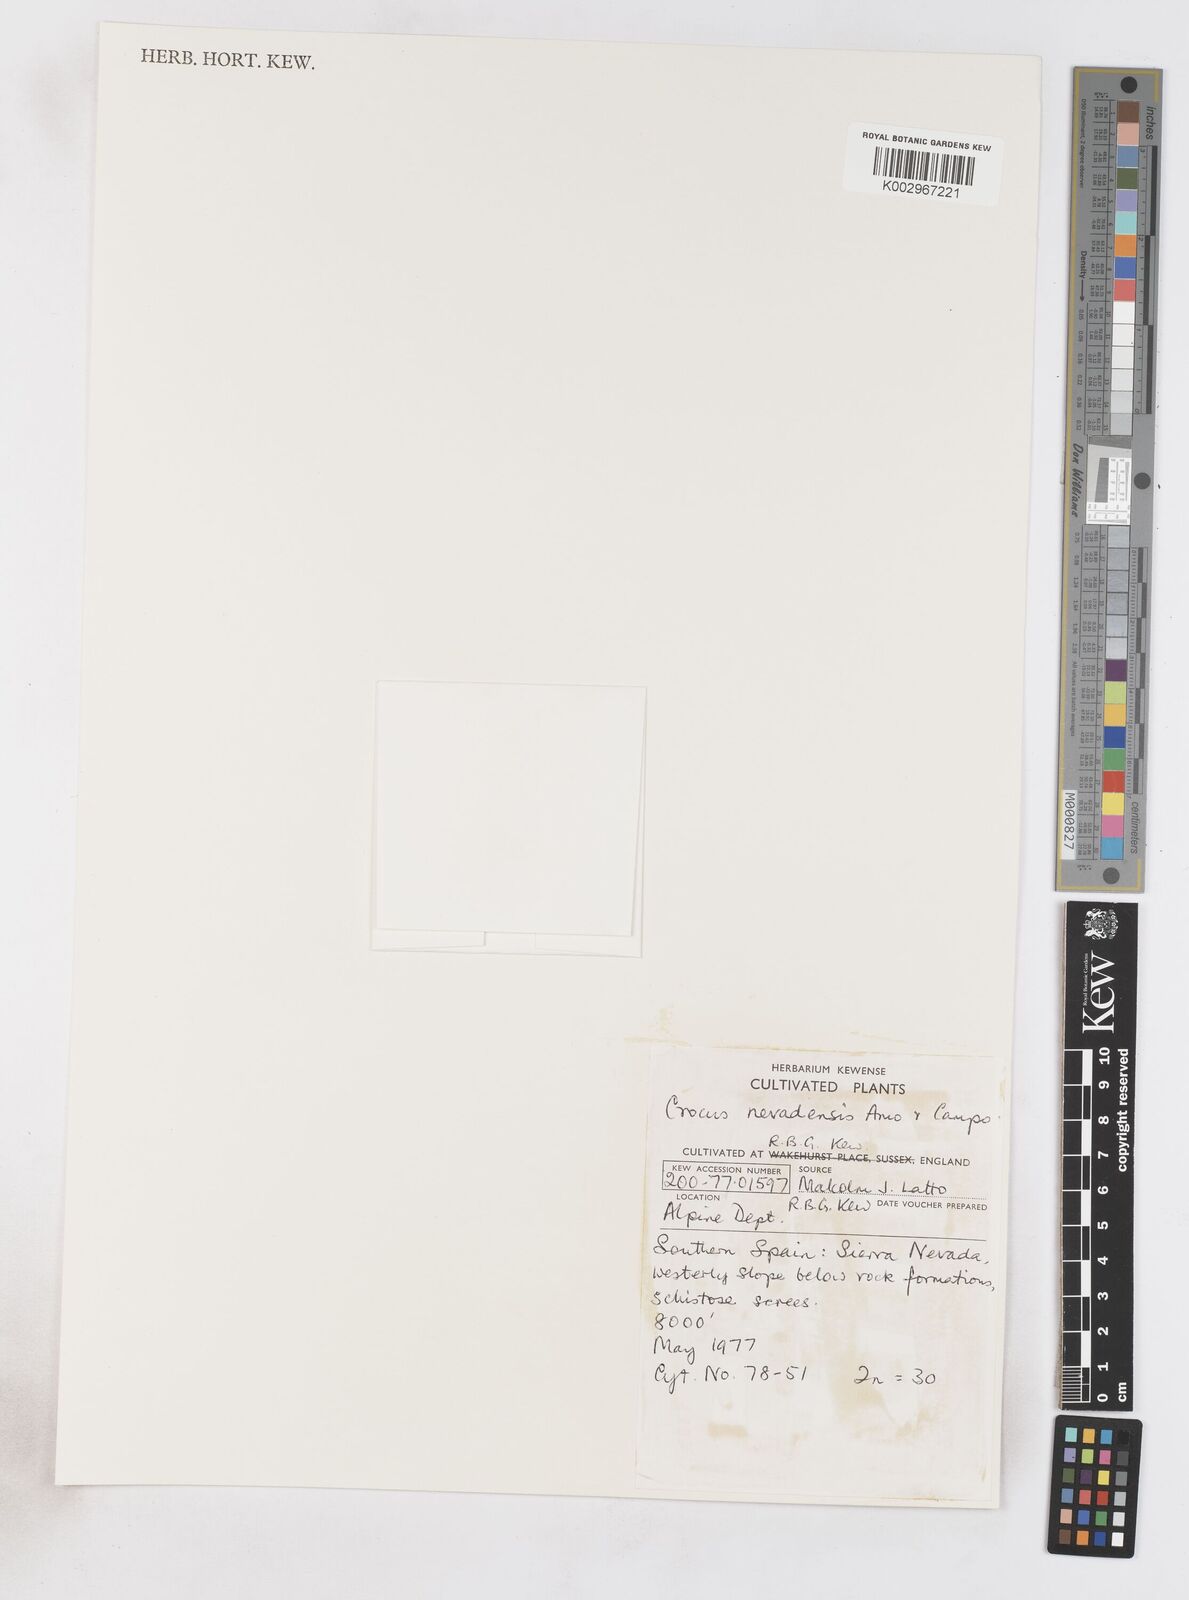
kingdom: Plantae
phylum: Tracheophyta
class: Liliopsida
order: Asparagales
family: Iridaceae
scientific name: Iridaceae
